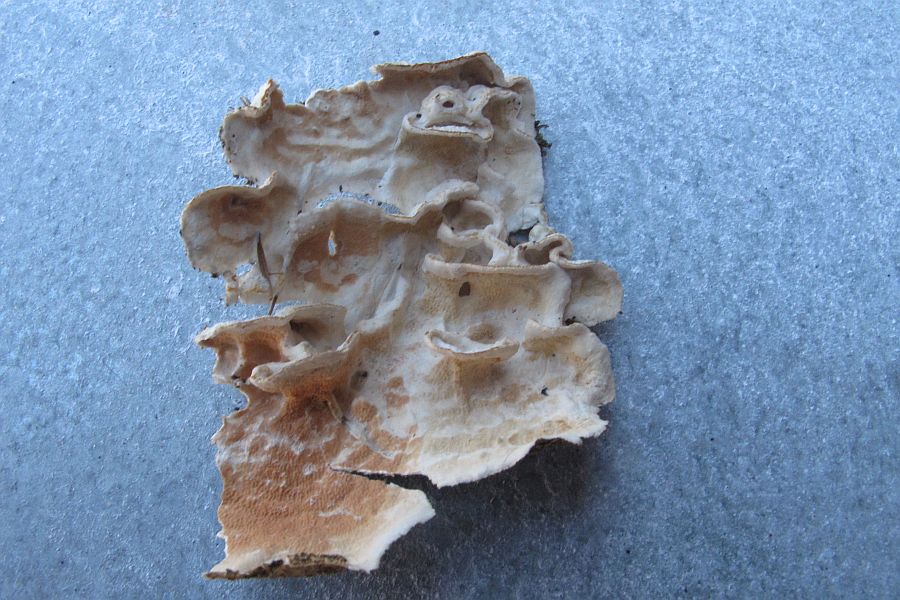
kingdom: Fungi
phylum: Basidiomycota
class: Agaricomycetes
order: Polyporales
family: Irpicaceae
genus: Byssomerulius
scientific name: Byssomerulius corium
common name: læder-åresvamp
